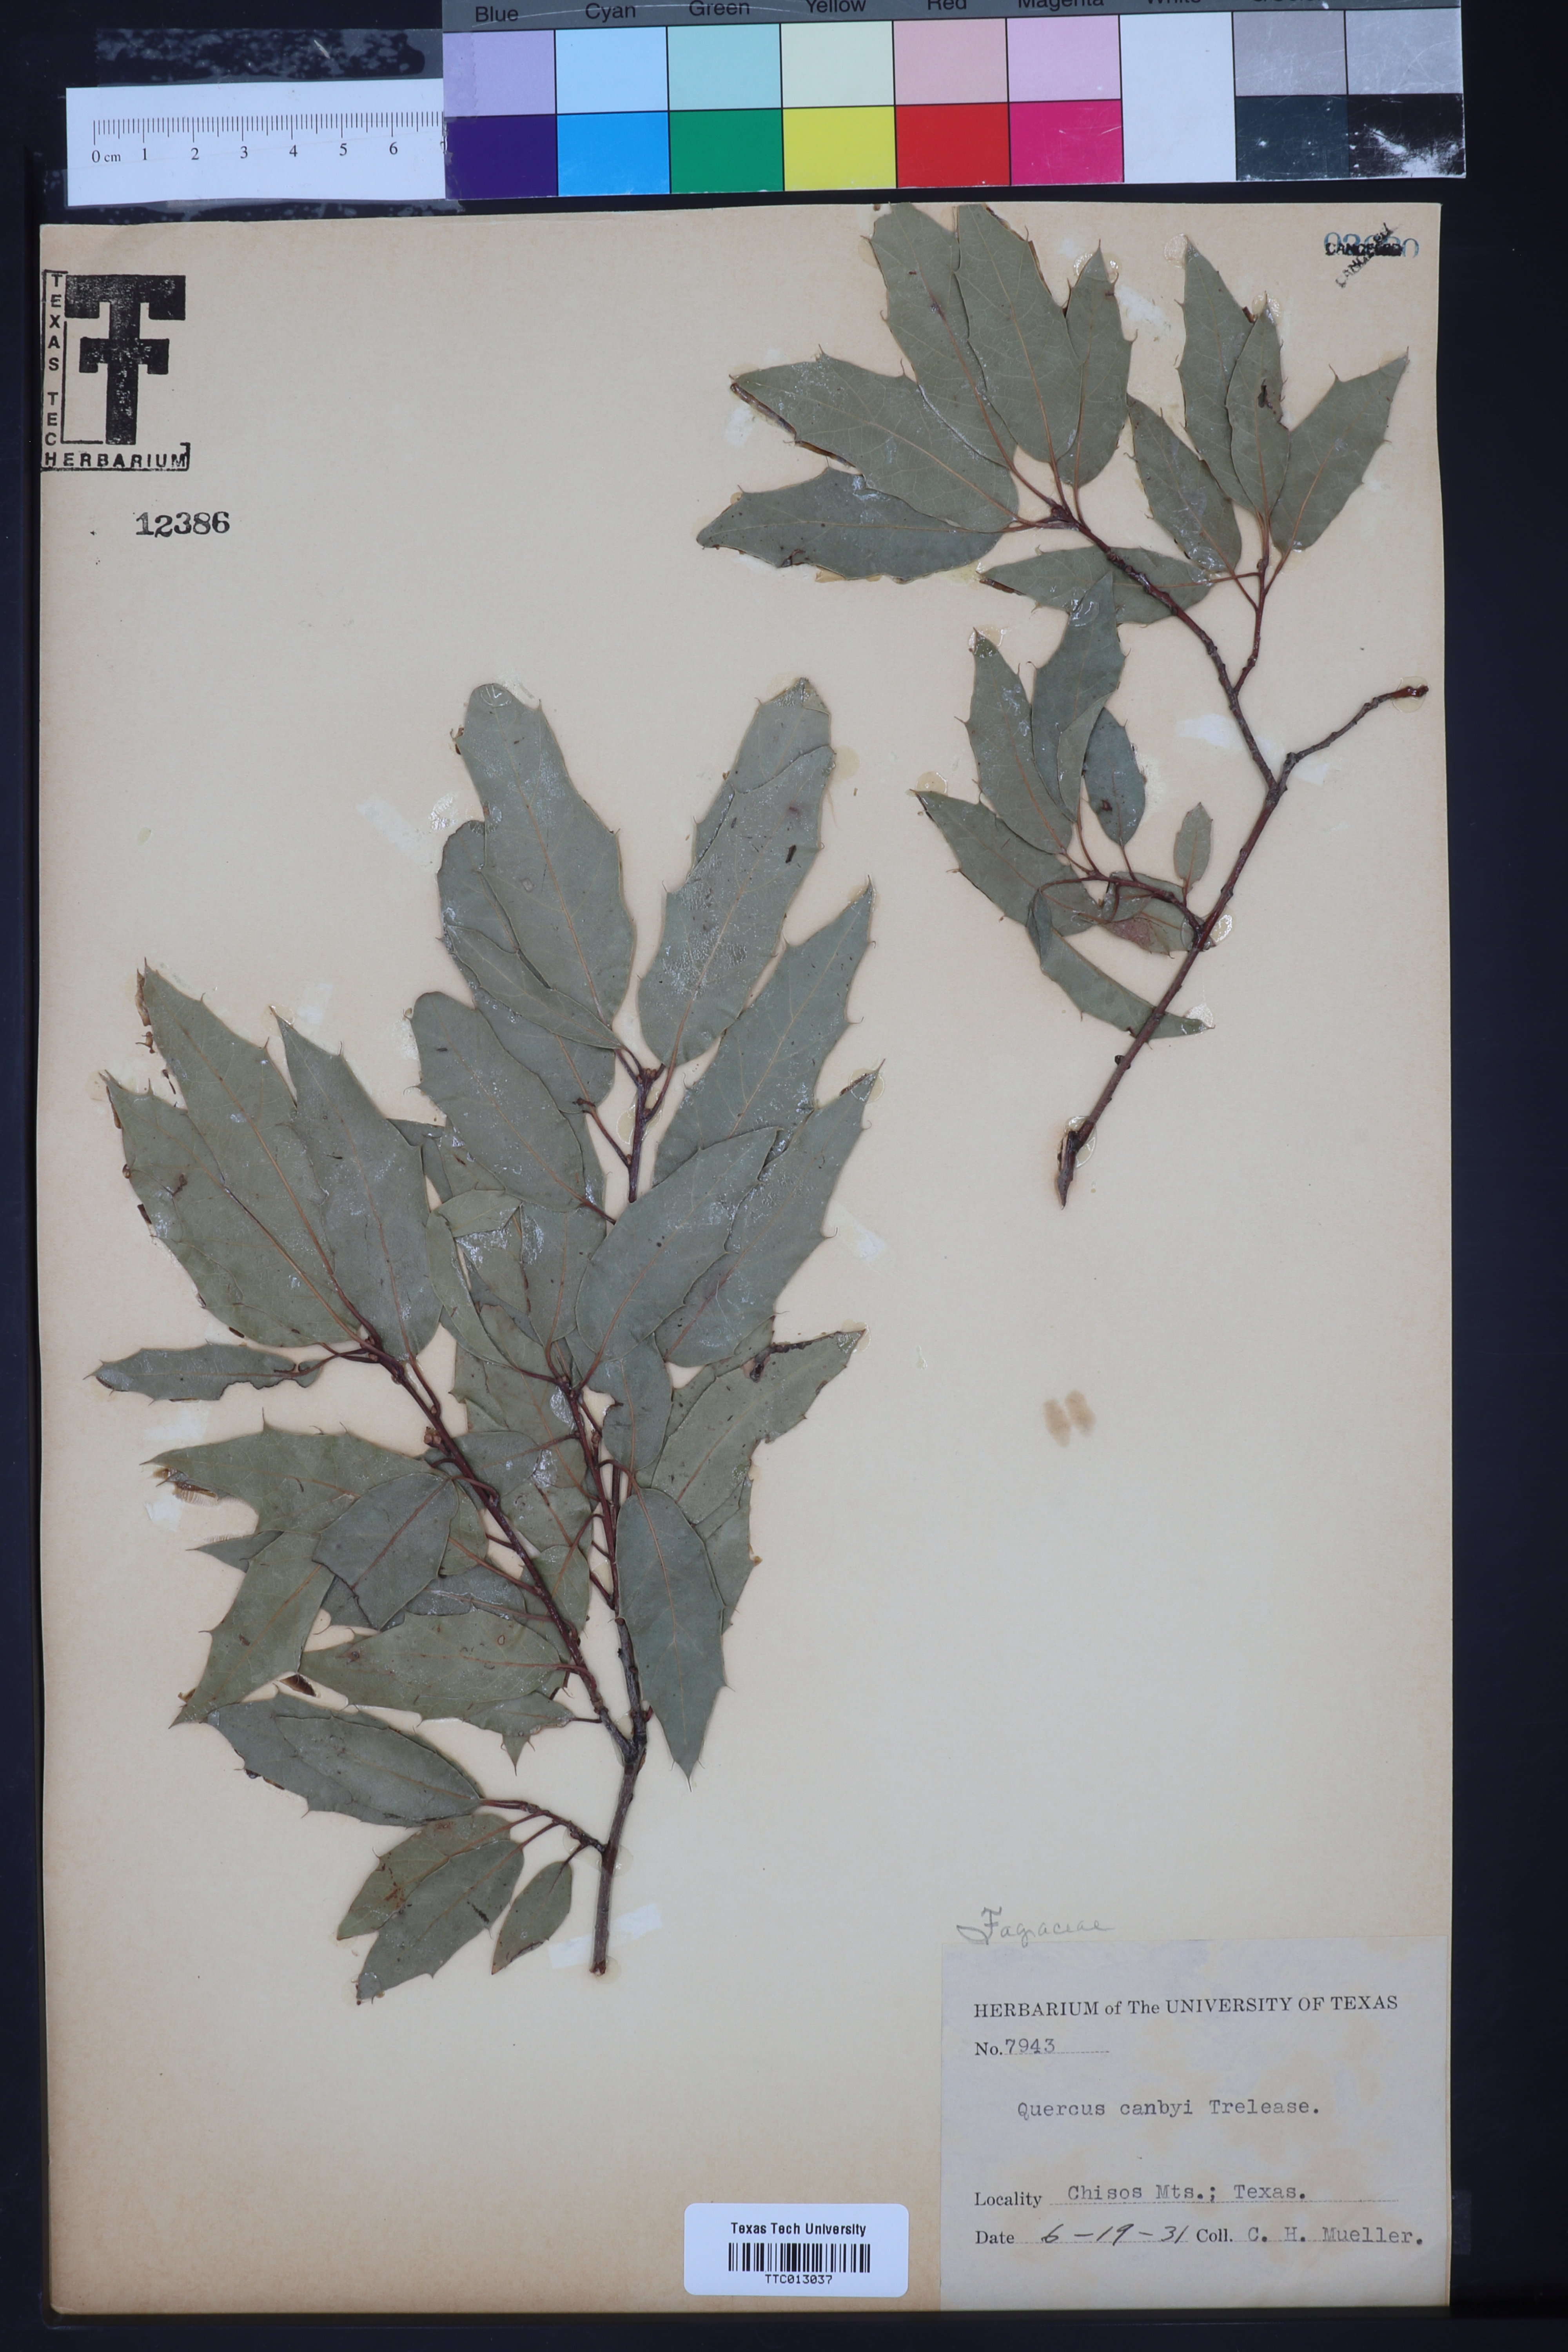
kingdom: Plantae
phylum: Tracheophyta
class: Magnoliopsida
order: Fagales
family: Fagaceae
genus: Quercus
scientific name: Quercus canbyi
